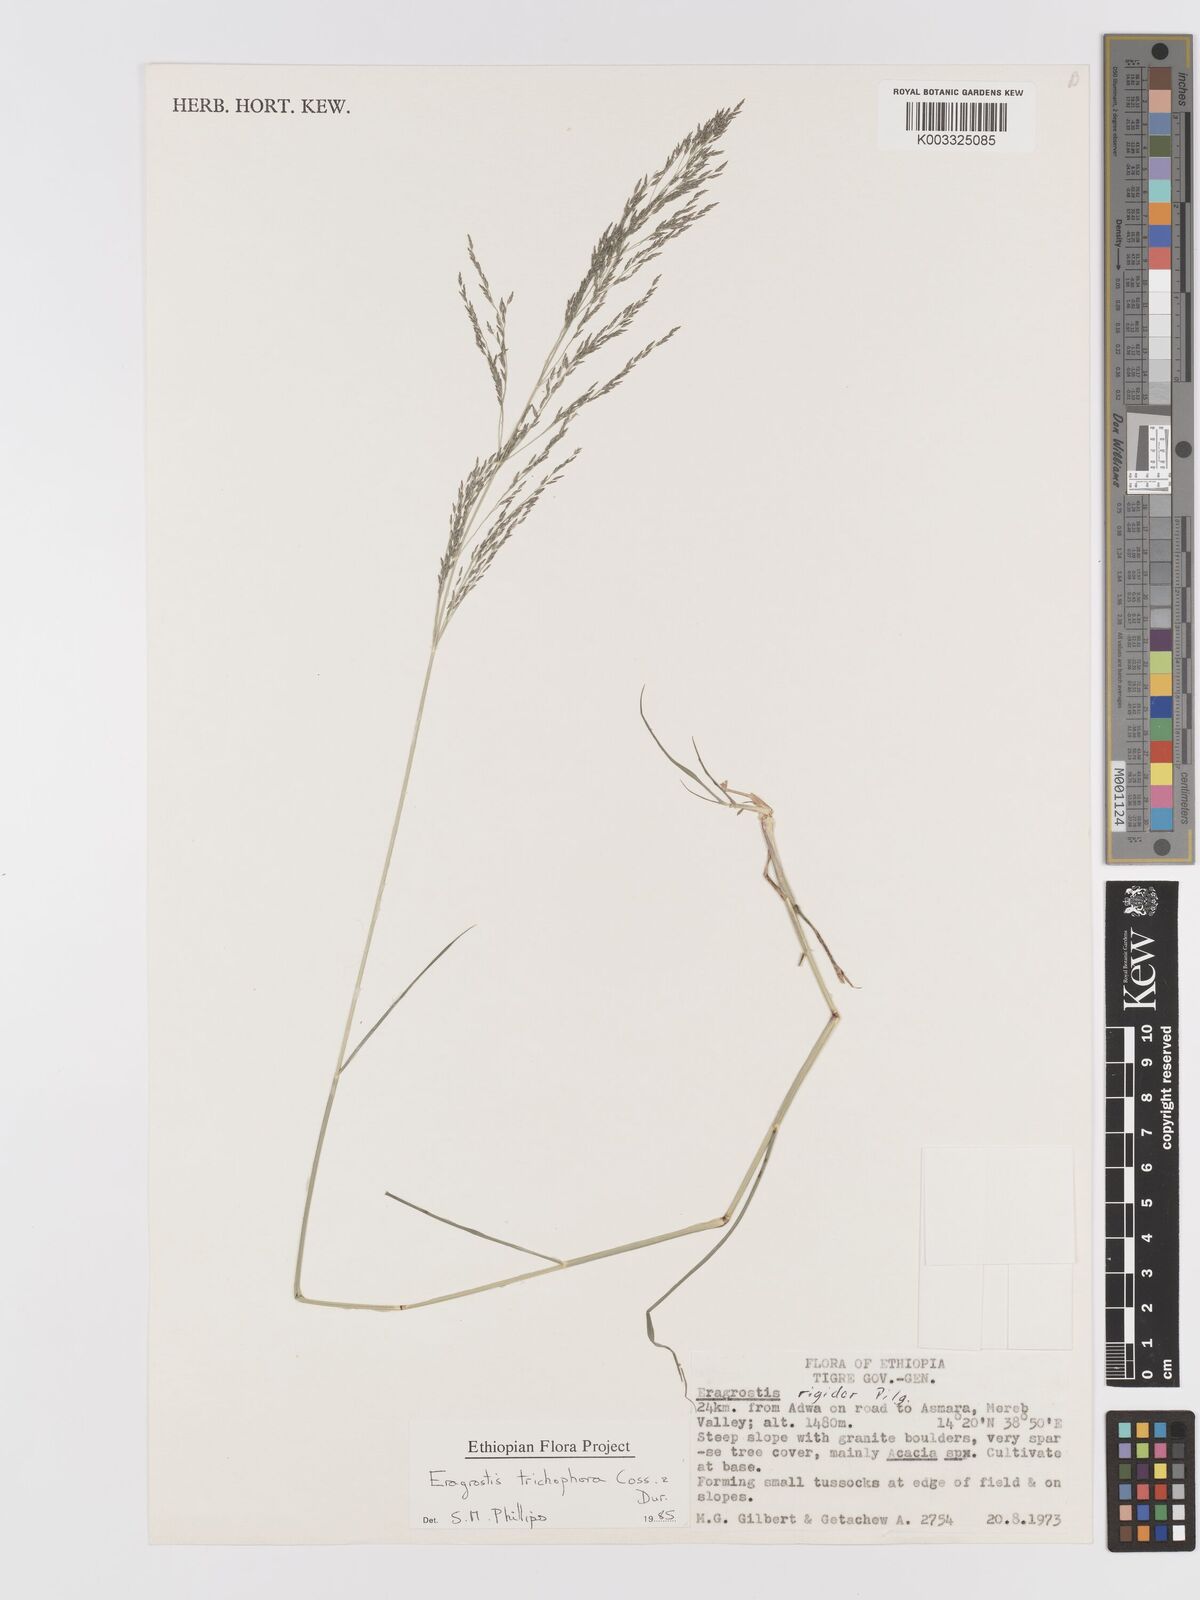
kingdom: Plantae
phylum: Tracheophyta
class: Liliopsida
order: Poales
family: Poaceae
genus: Eragrostis
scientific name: Eragrostis cylindriflora
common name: Cylinderflower lovegrass
